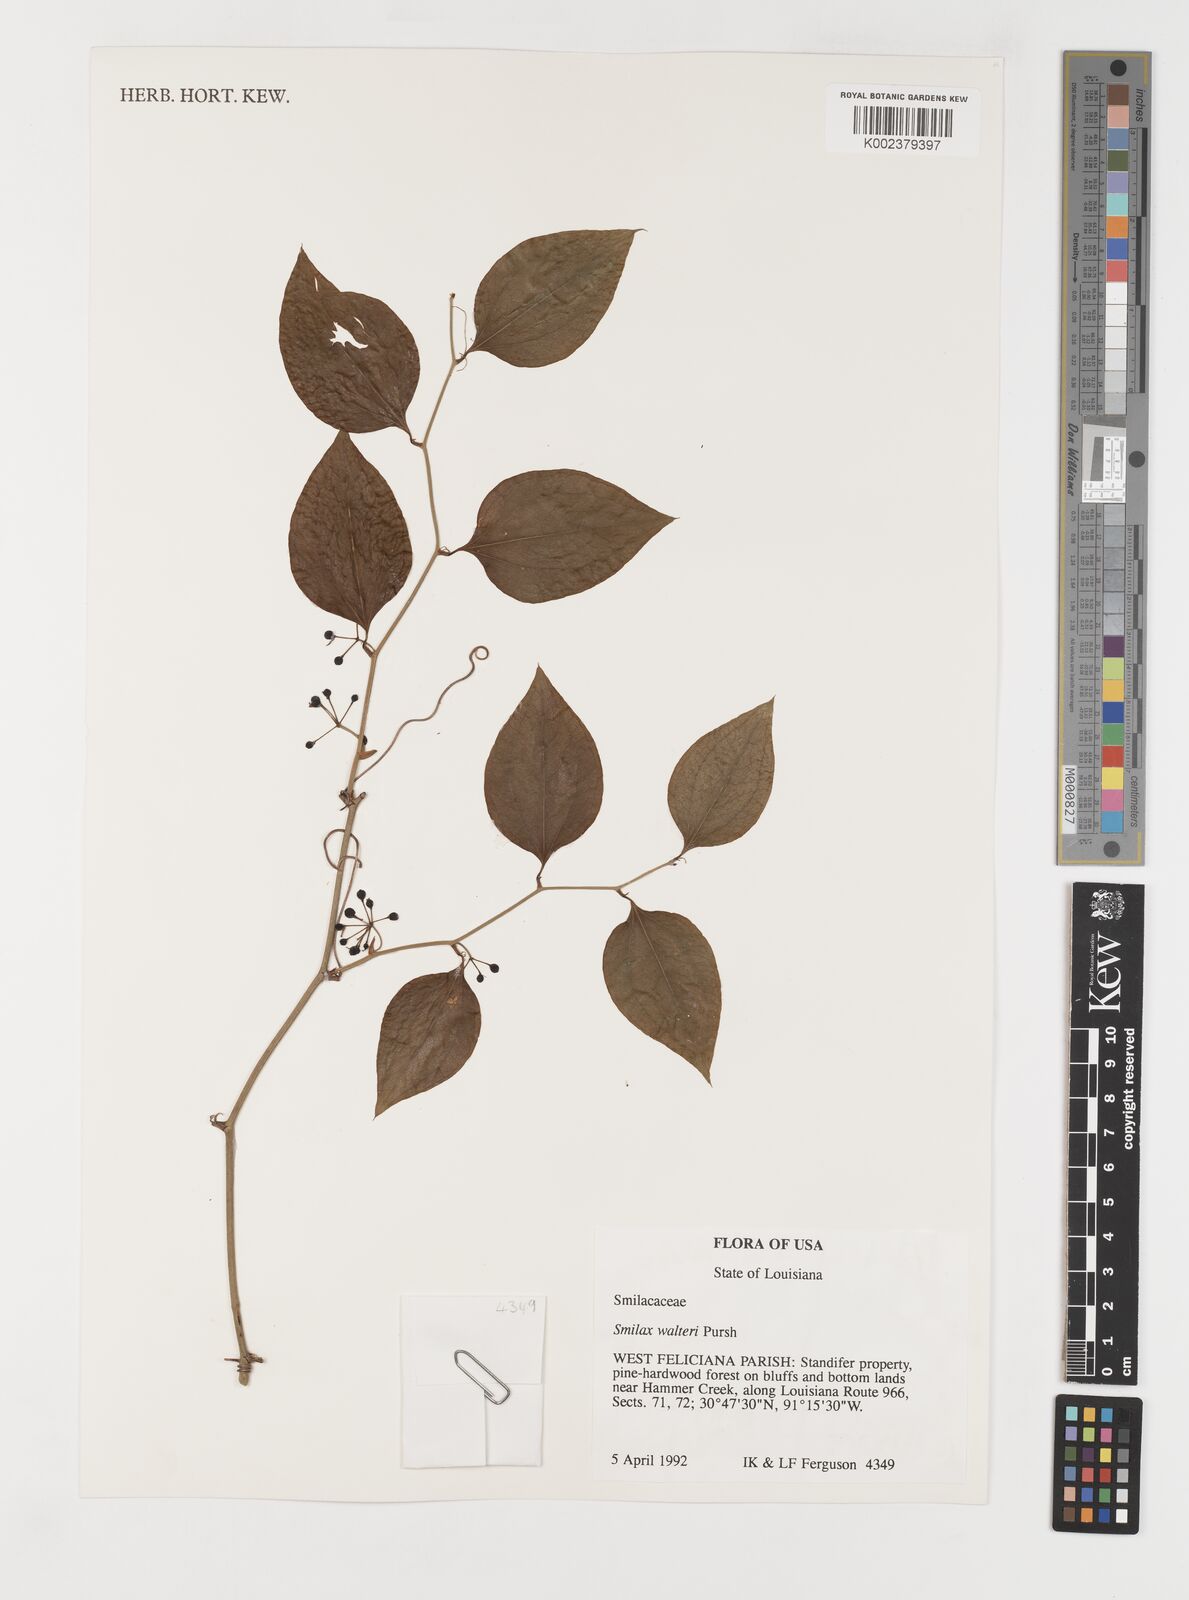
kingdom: Plantae
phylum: Tracheophyta
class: Liliopsida
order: Liliales
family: Smilacaceae
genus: Smilax
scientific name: Smilax walteri
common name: Coral greenbrier
